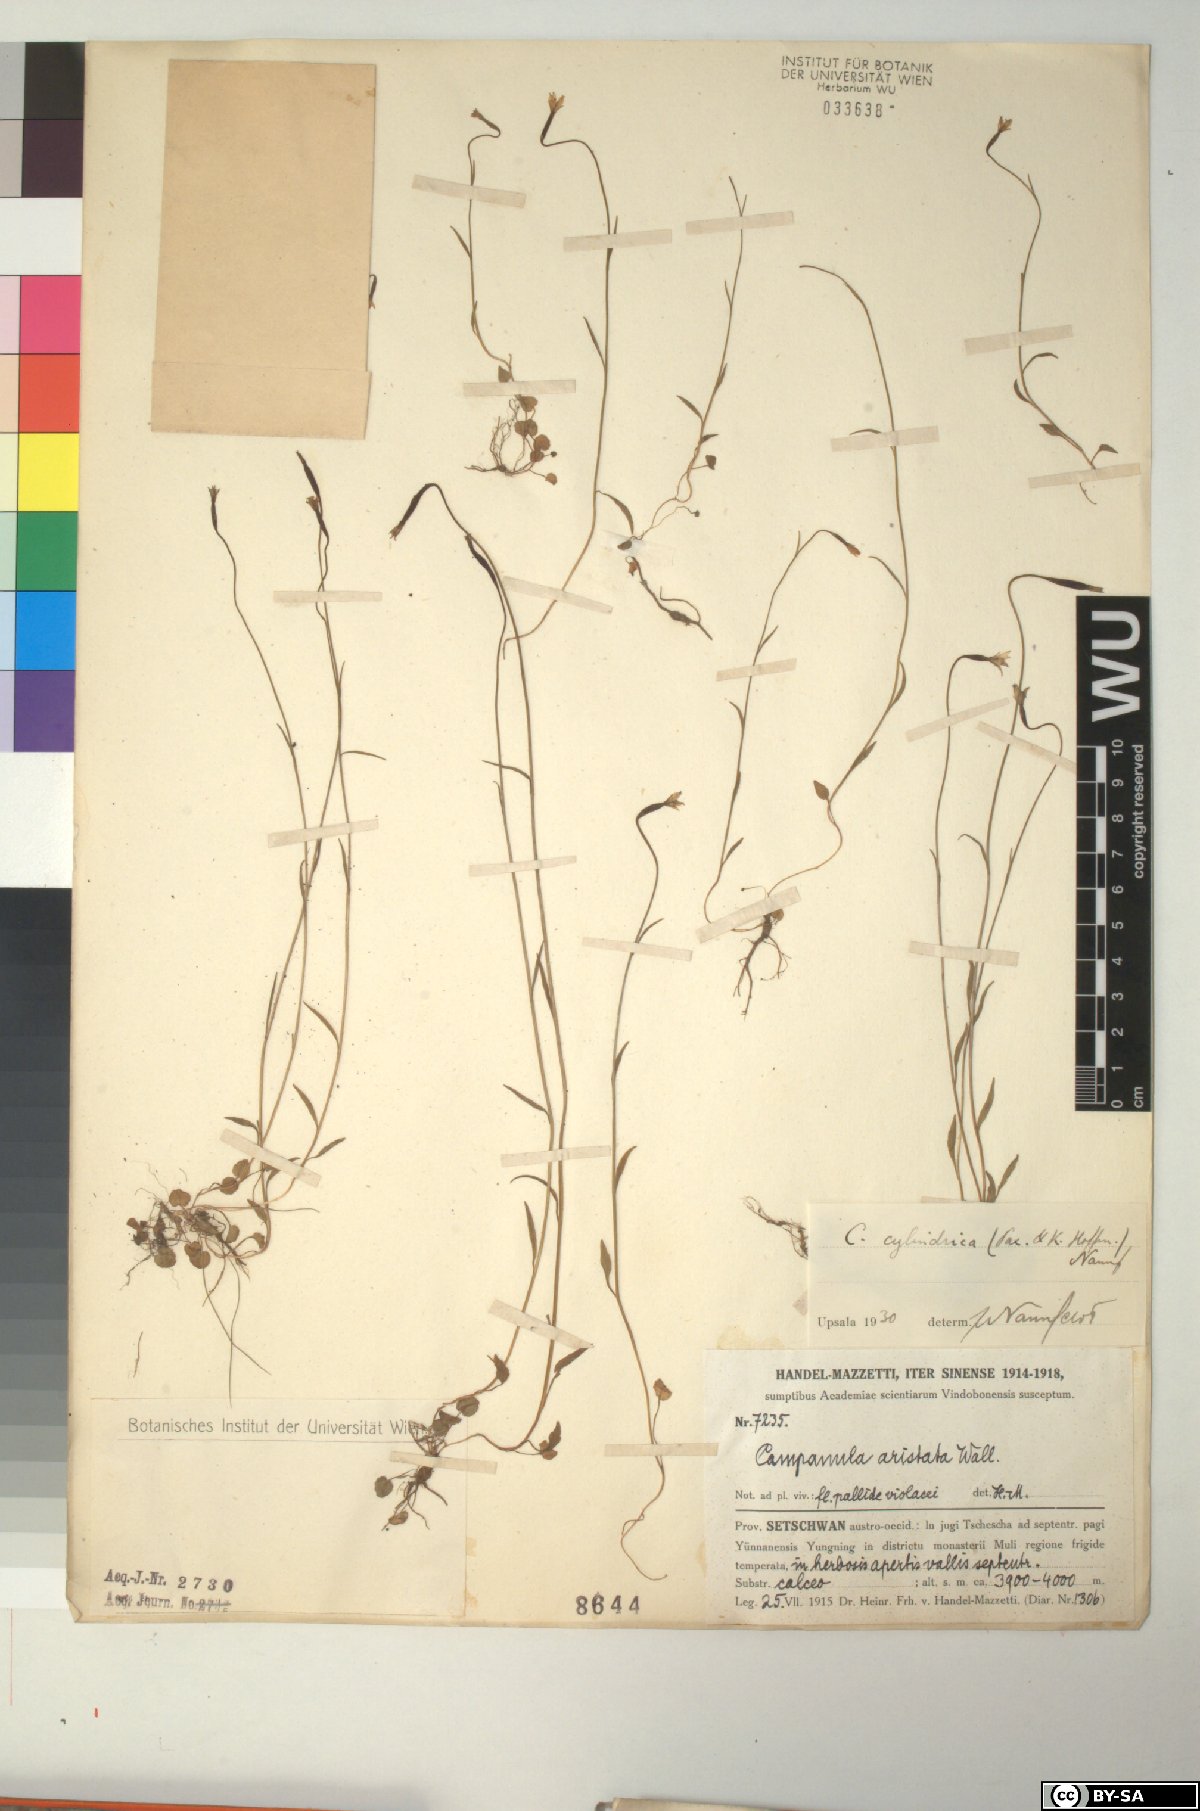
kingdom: Plantae
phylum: Tracheophyta
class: Magnoliopsida
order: Asterales
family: Campanulaceae
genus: Campanula
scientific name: Campanula aristata
